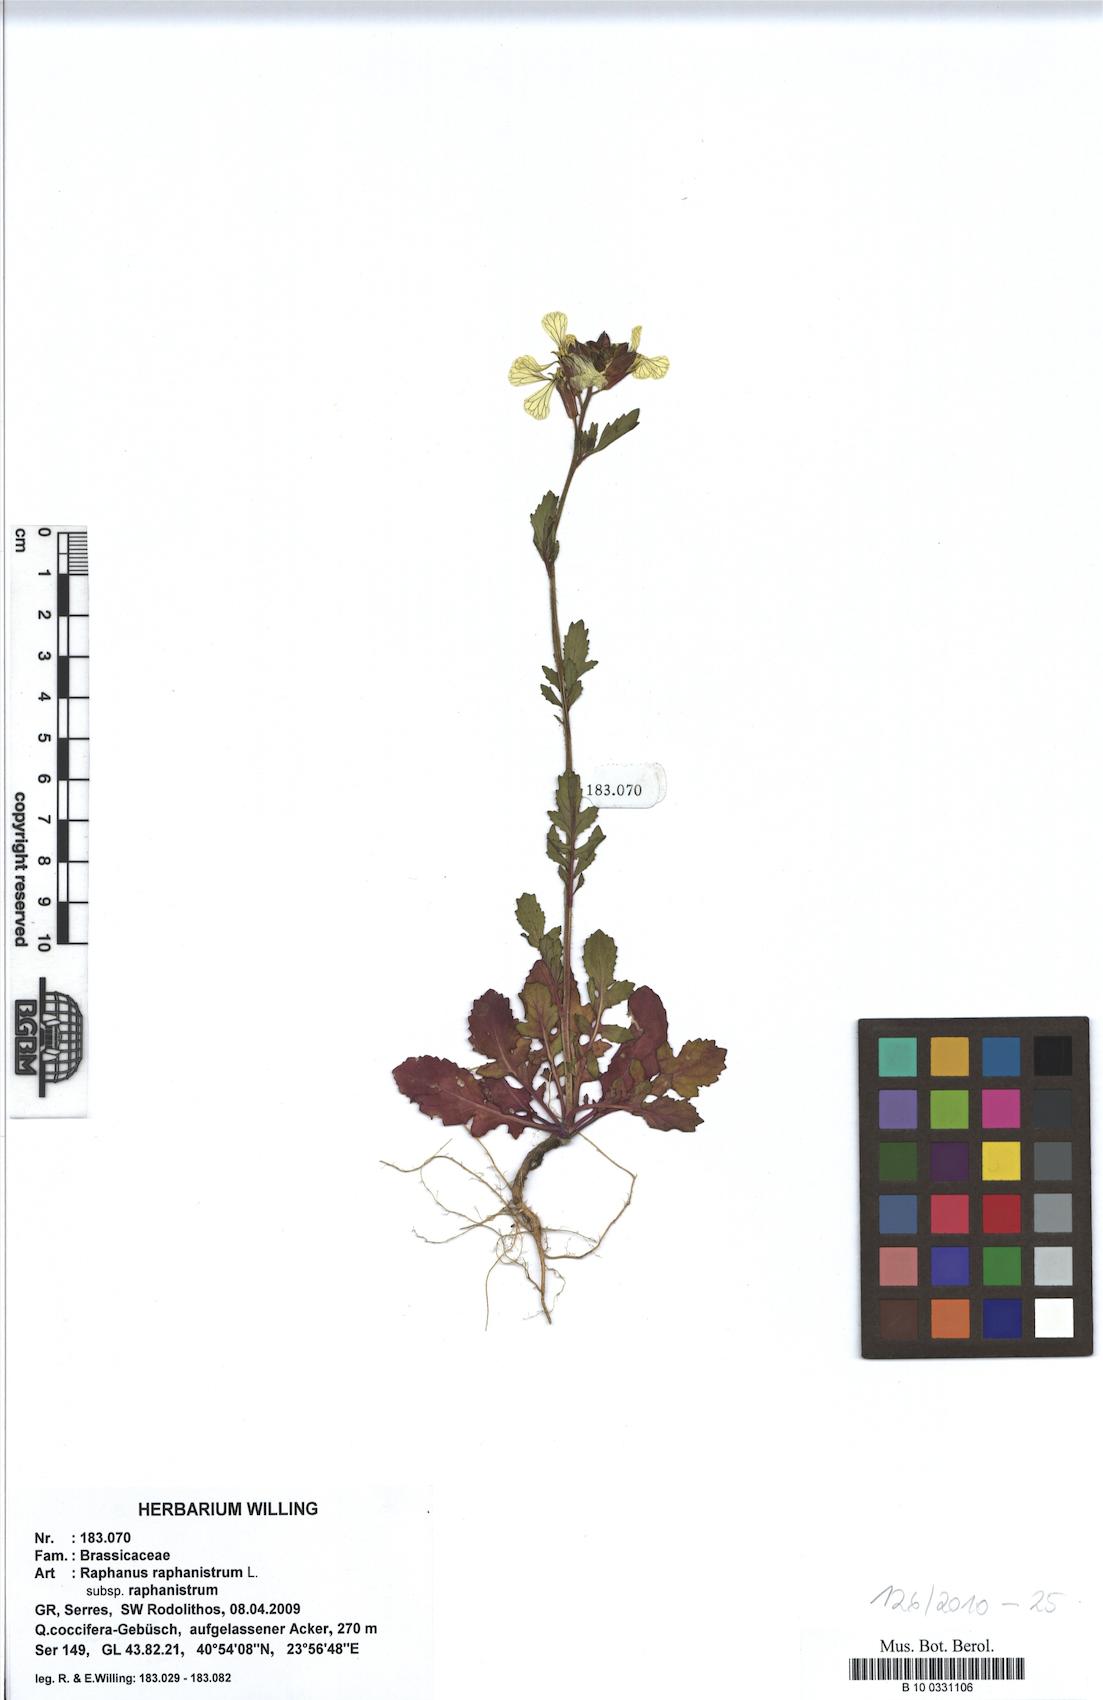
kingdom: Plantae
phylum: Tracheophyta
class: Magnoliopsida
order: Brassicales
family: Brassicaceae
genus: Raphanus
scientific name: Raphanus raphanistrum
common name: Wild radish
